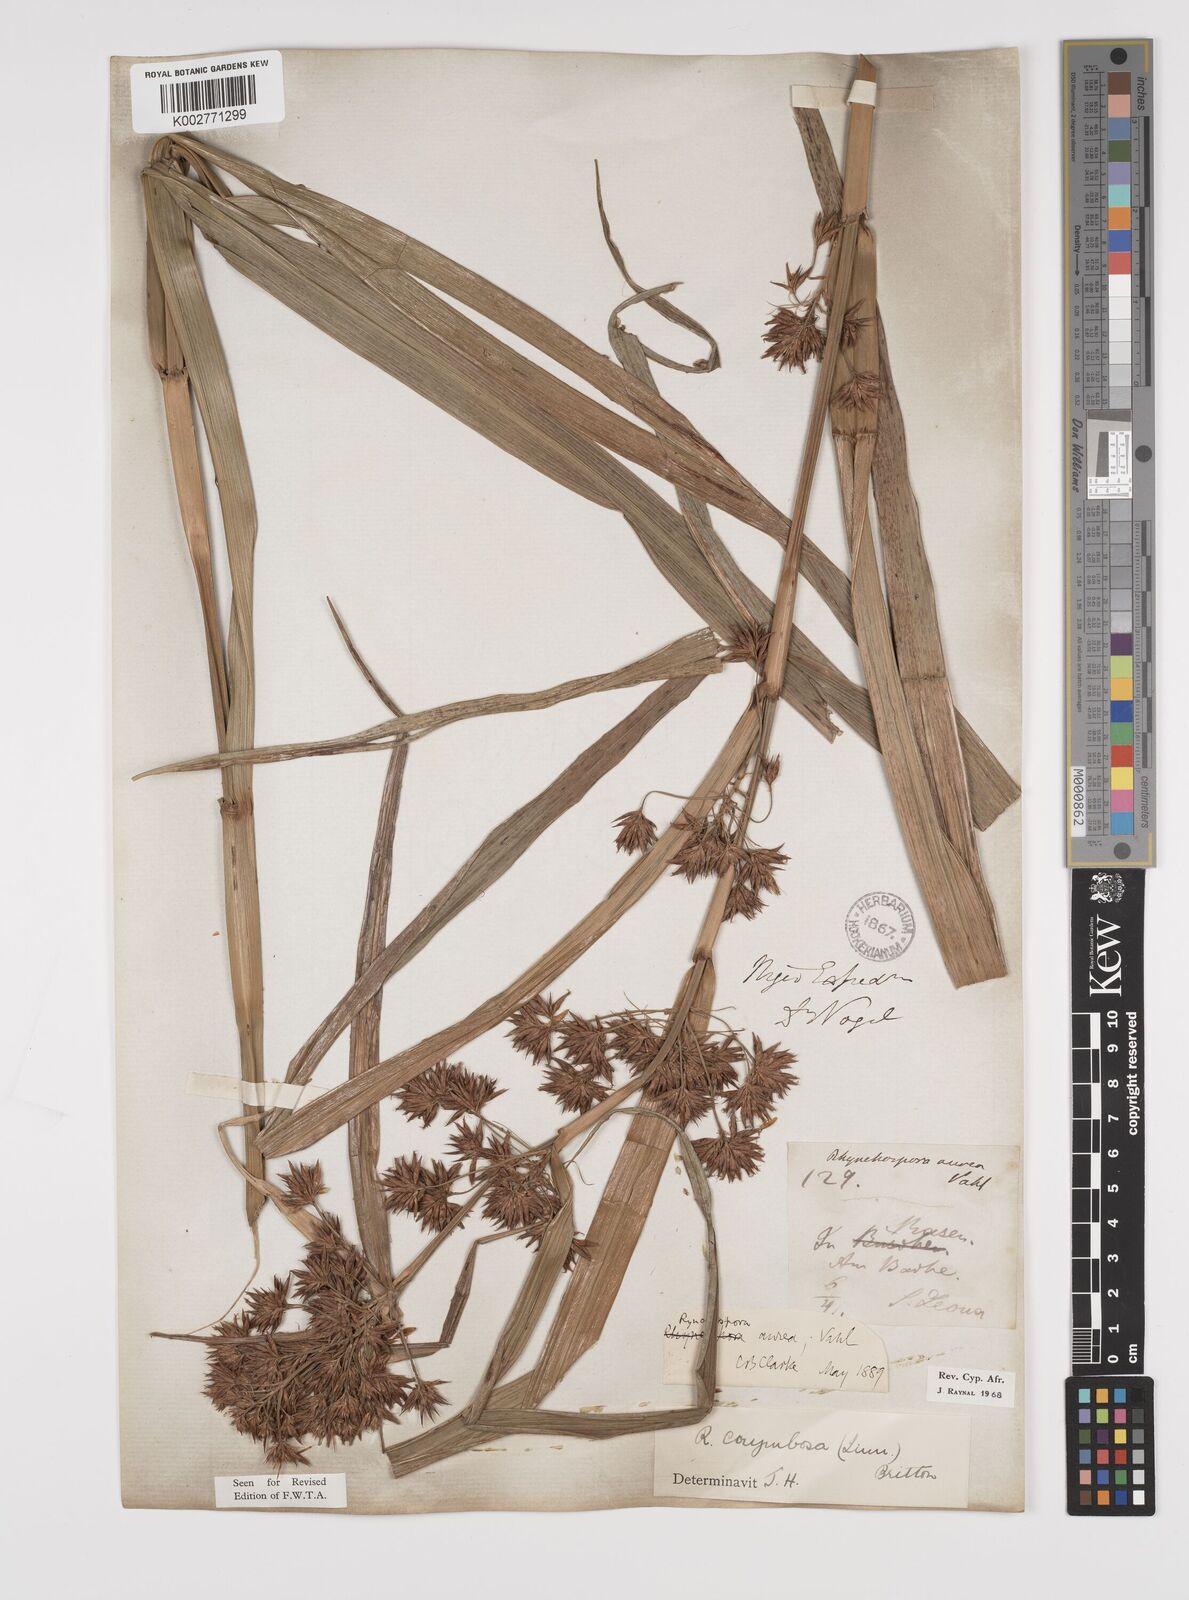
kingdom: Plantae
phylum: Tracheophyta
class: Liliopsida
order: Poales
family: Cyperaceae
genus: Rhynchospora
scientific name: Rhynchospora corymbosa
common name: Golden beak sedge
